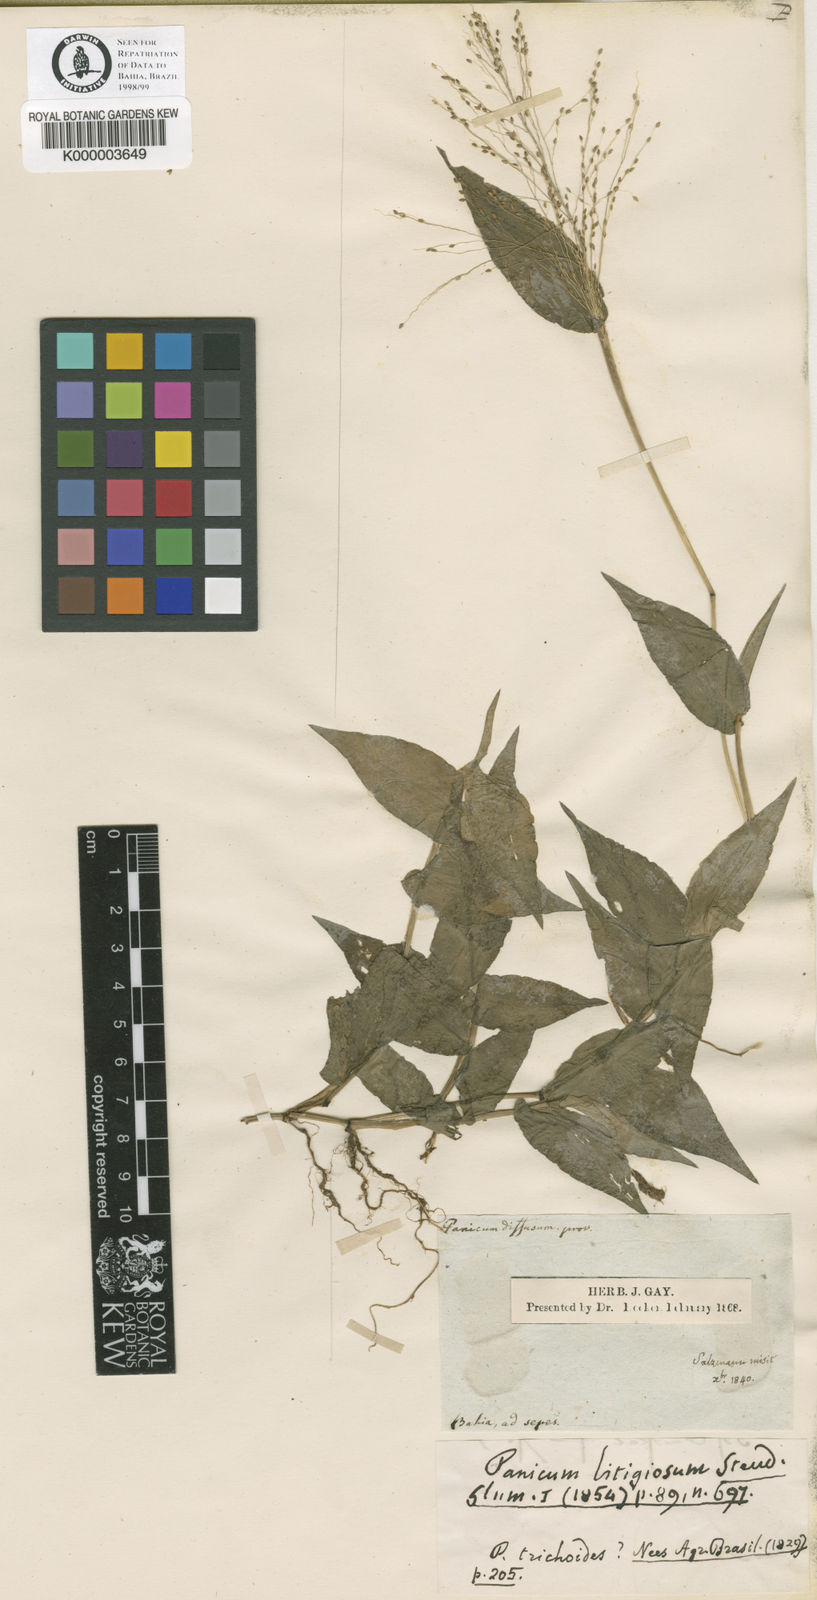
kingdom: Plantae
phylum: Tracheophyta
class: Liliopsida
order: Poales
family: Poaceae
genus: Panicum
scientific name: Panicum brevifolium
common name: Shortleaf panic grass
